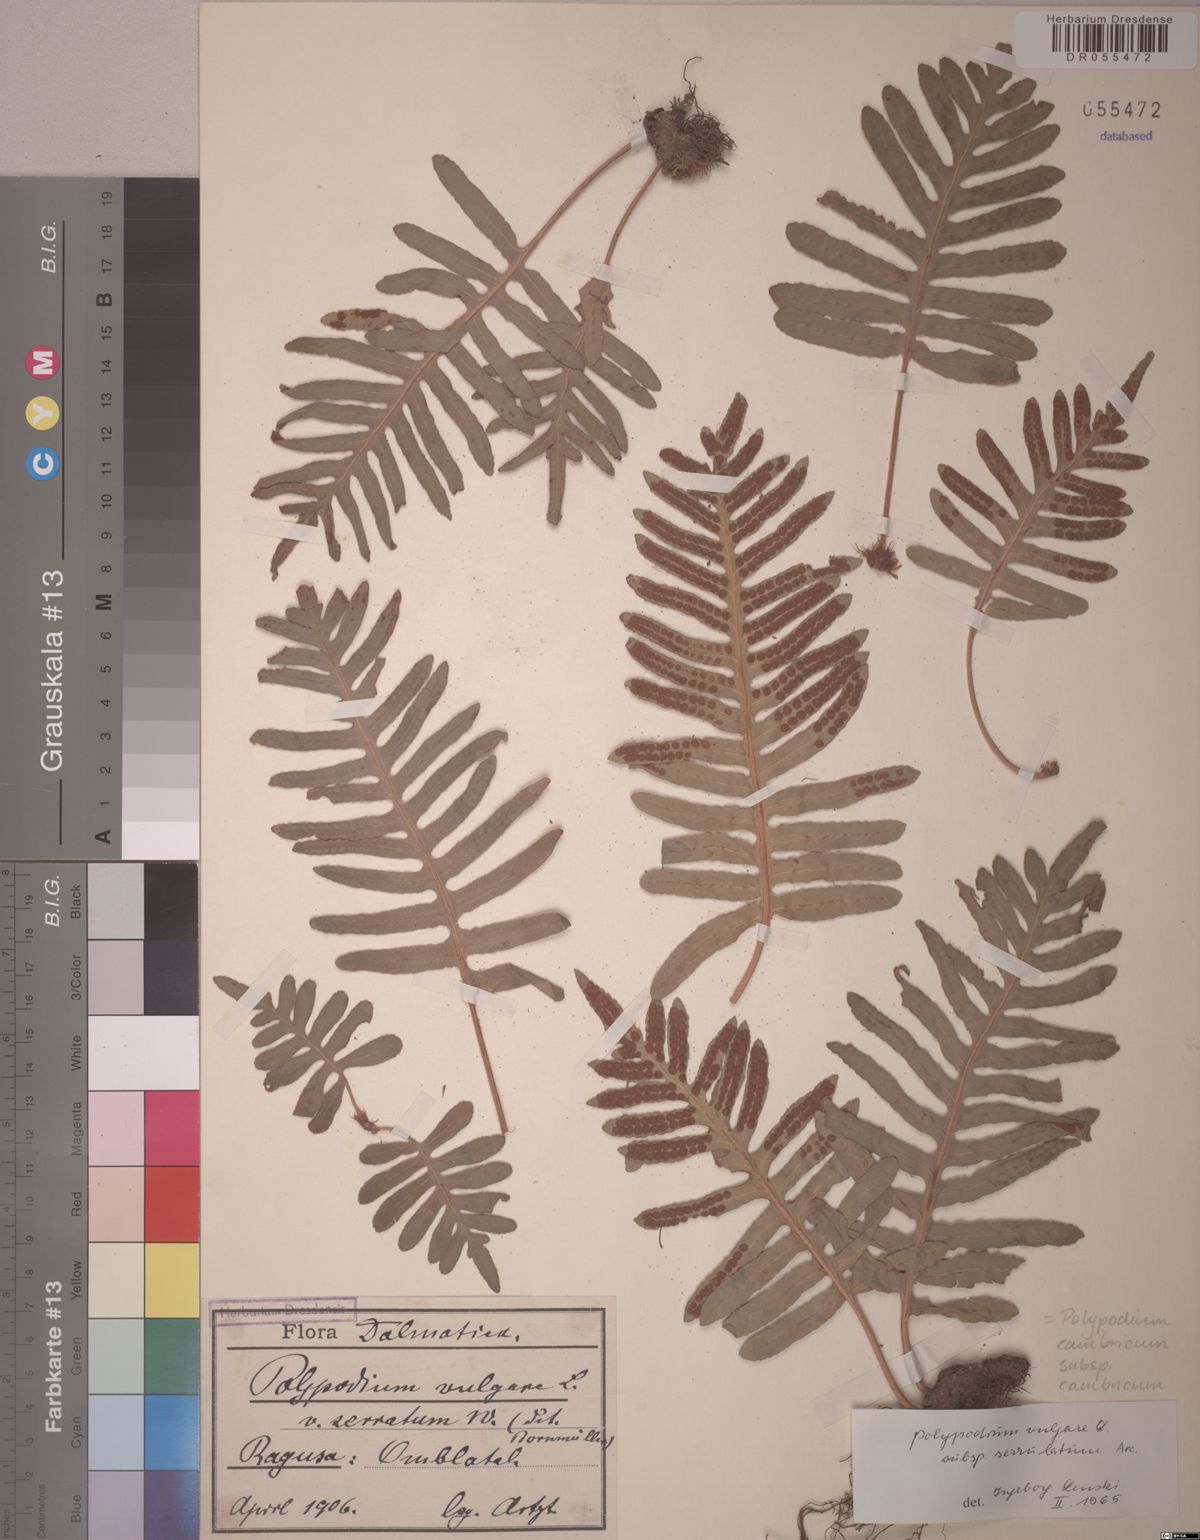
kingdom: Plantae
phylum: Tracheophyta
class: Polypodiopsida
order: Polypodiales
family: Polypodiaceae
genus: Polypodium
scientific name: Polypodium cambricum
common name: Southern polypody
